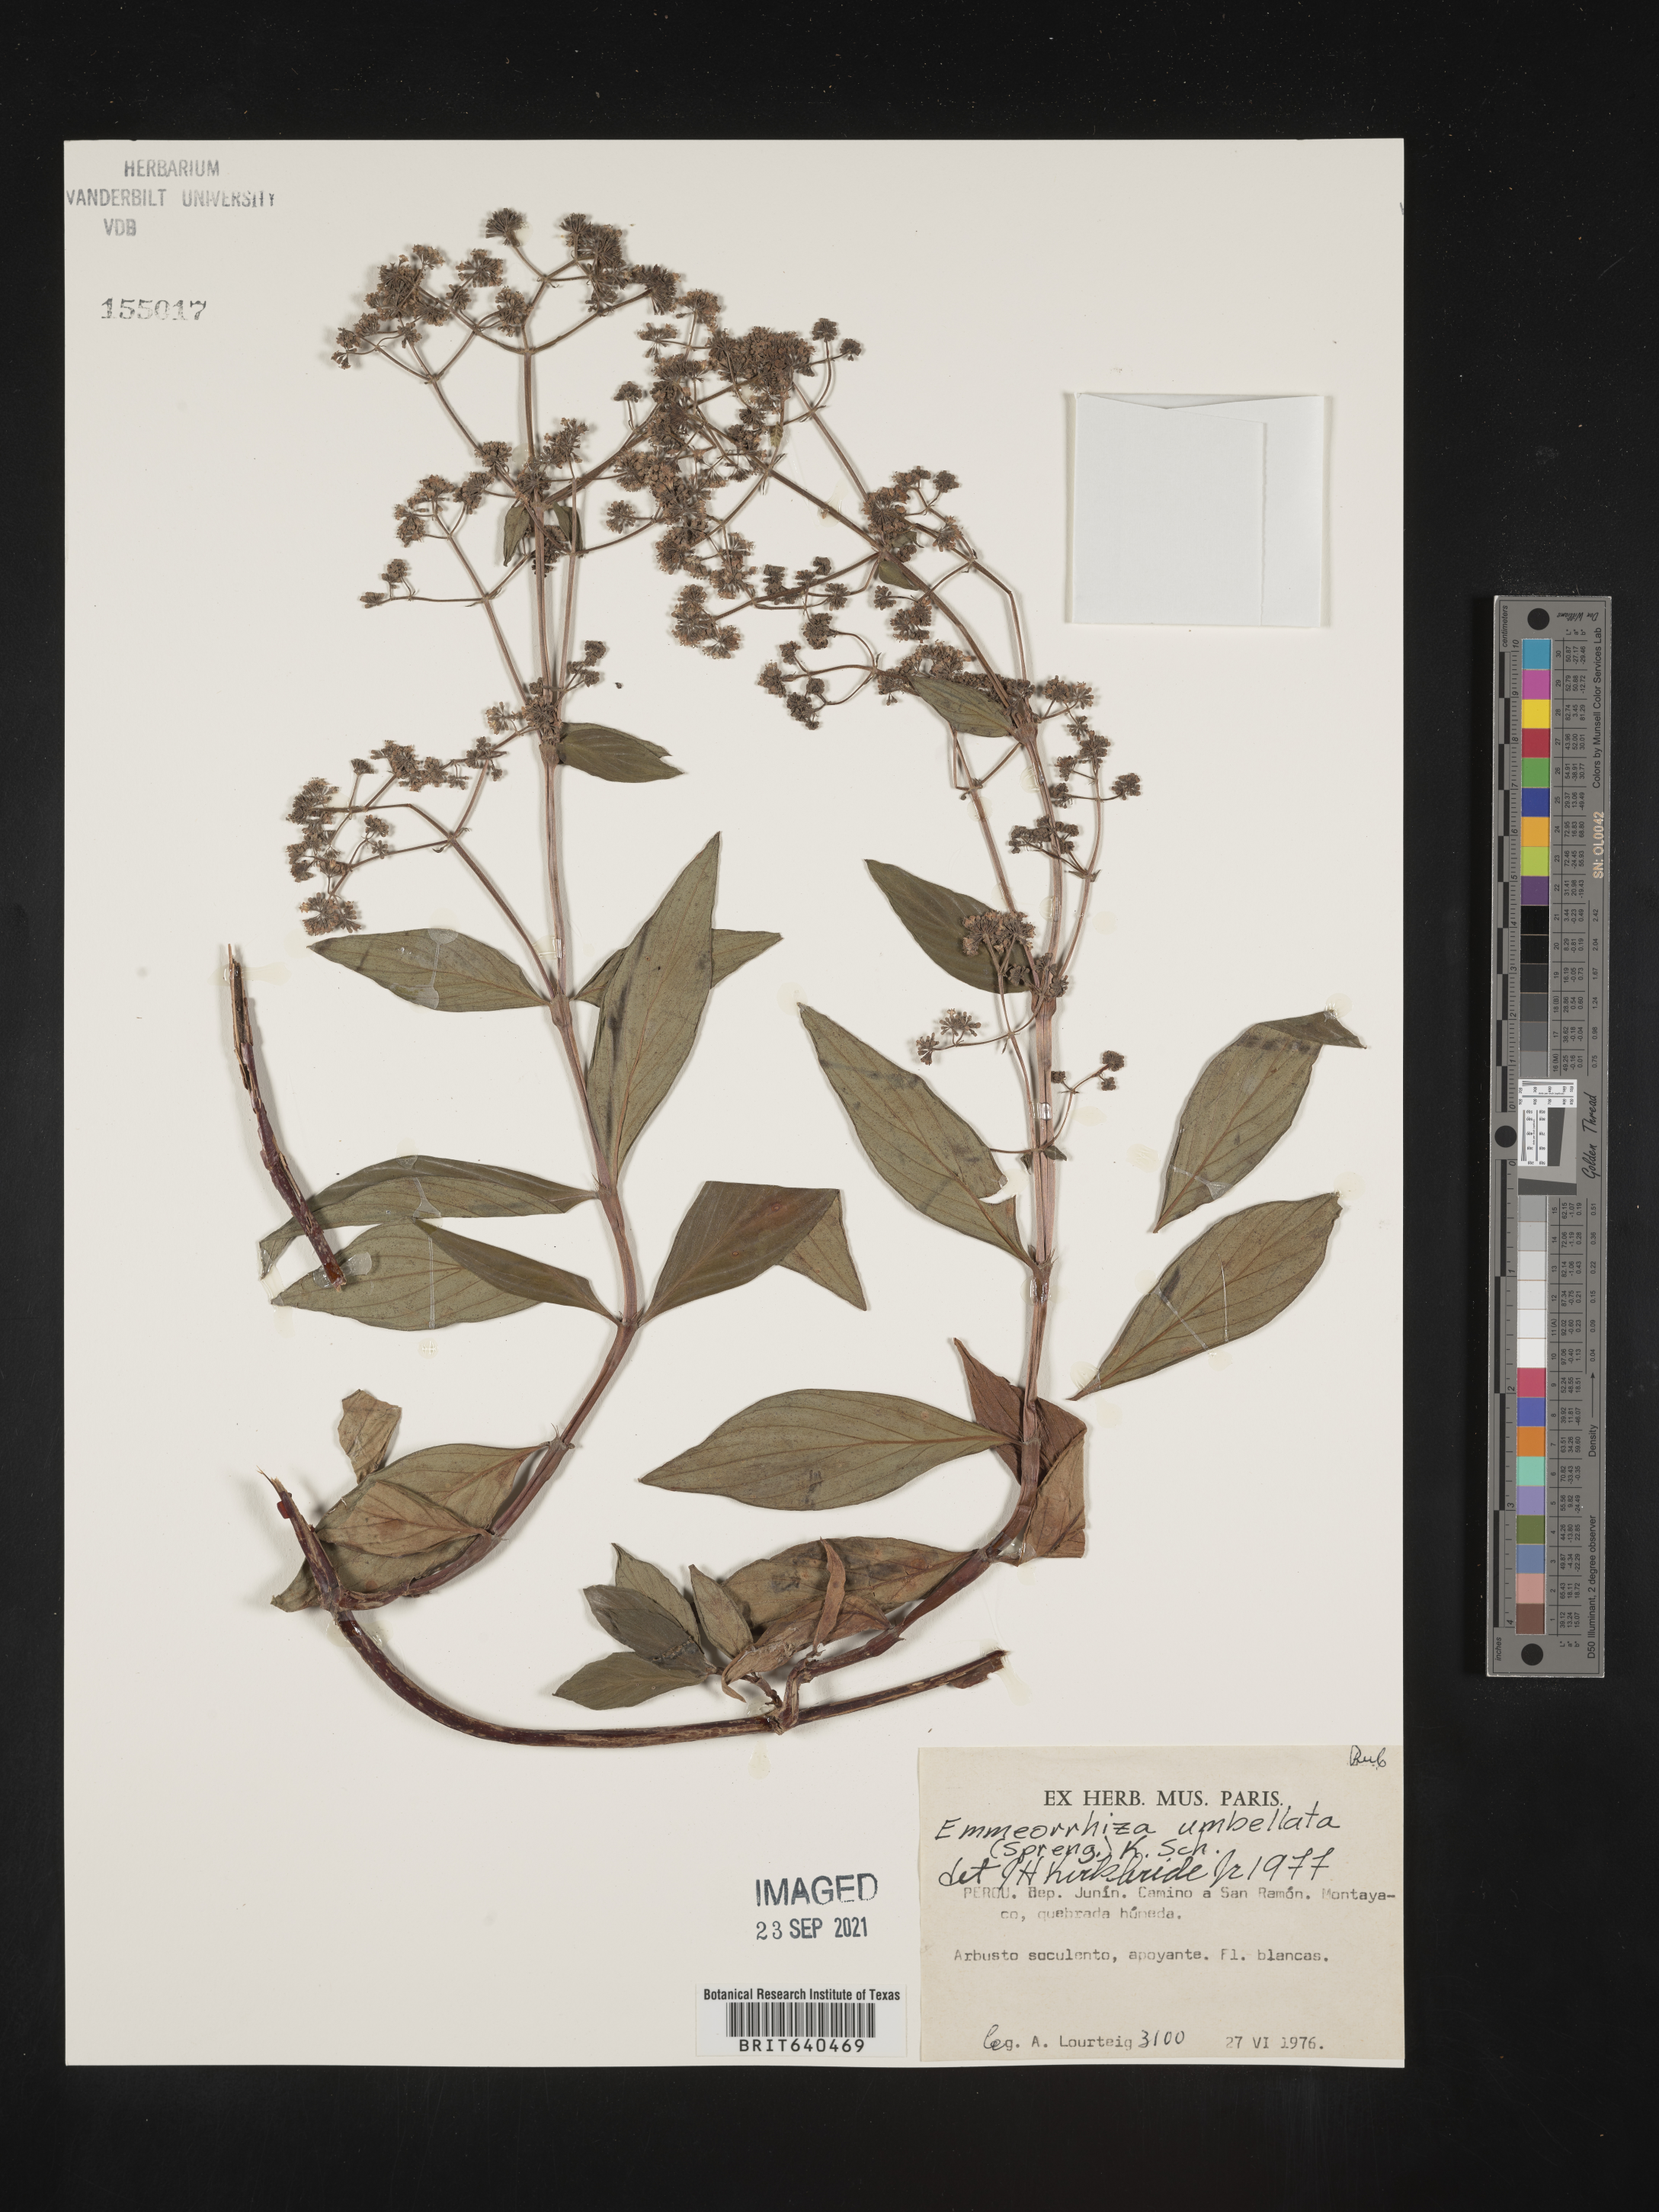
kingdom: Plantae
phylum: Tracheophyta
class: Magnoliopsida
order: Gentianales
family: Rubiaceae
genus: Emmeorhiza
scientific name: Emmeorhiza
